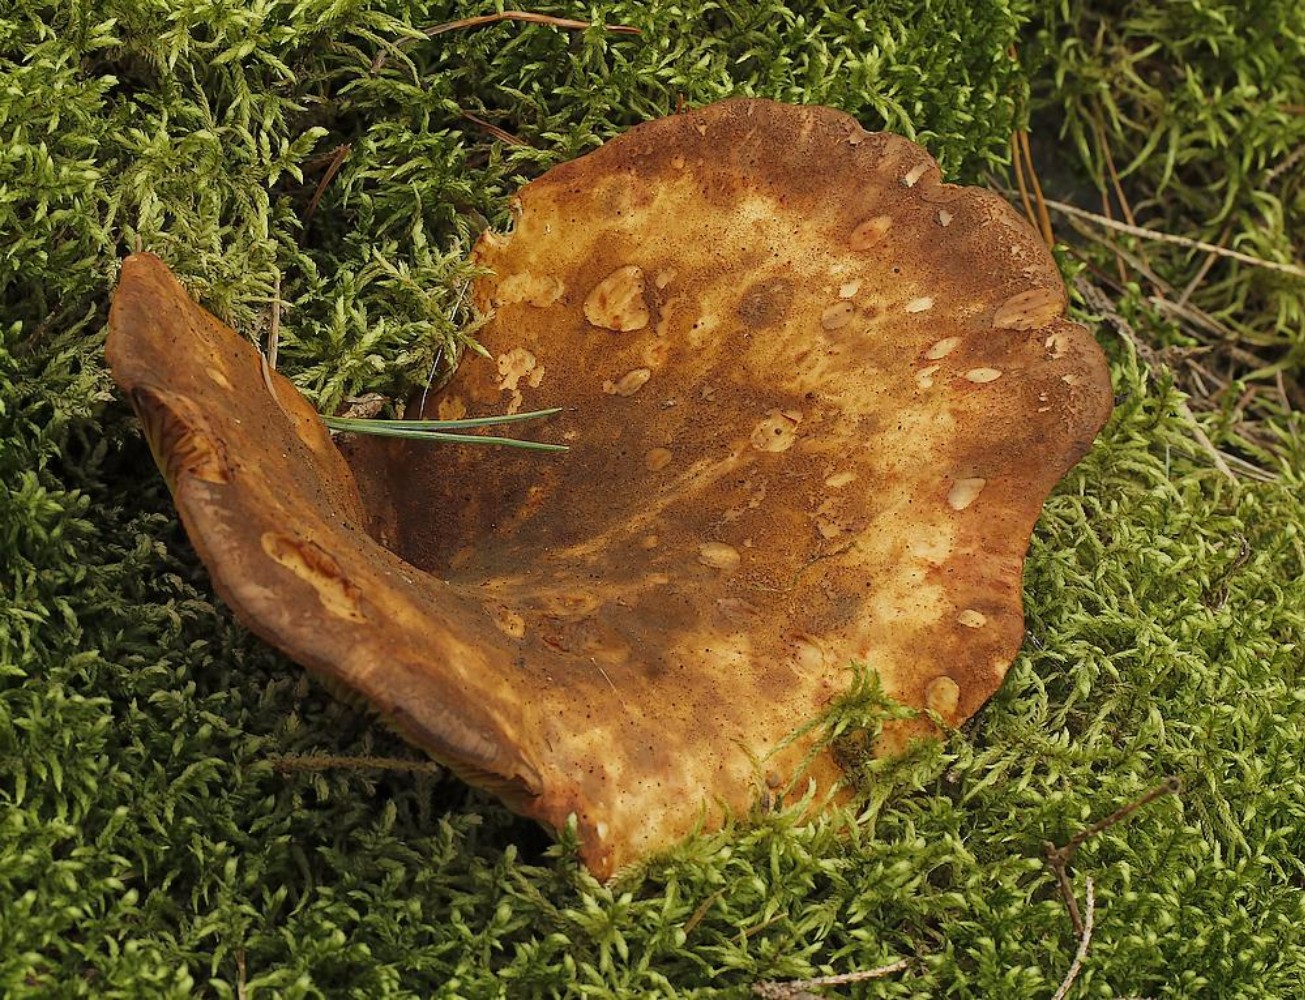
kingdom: Fungi
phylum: Basidiomycota
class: Agaricomycetes
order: Boletales
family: Tapinellaceae
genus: Tapinella
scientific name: Tapinella atrotomentosa
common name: sortfiltet viftesvamp
